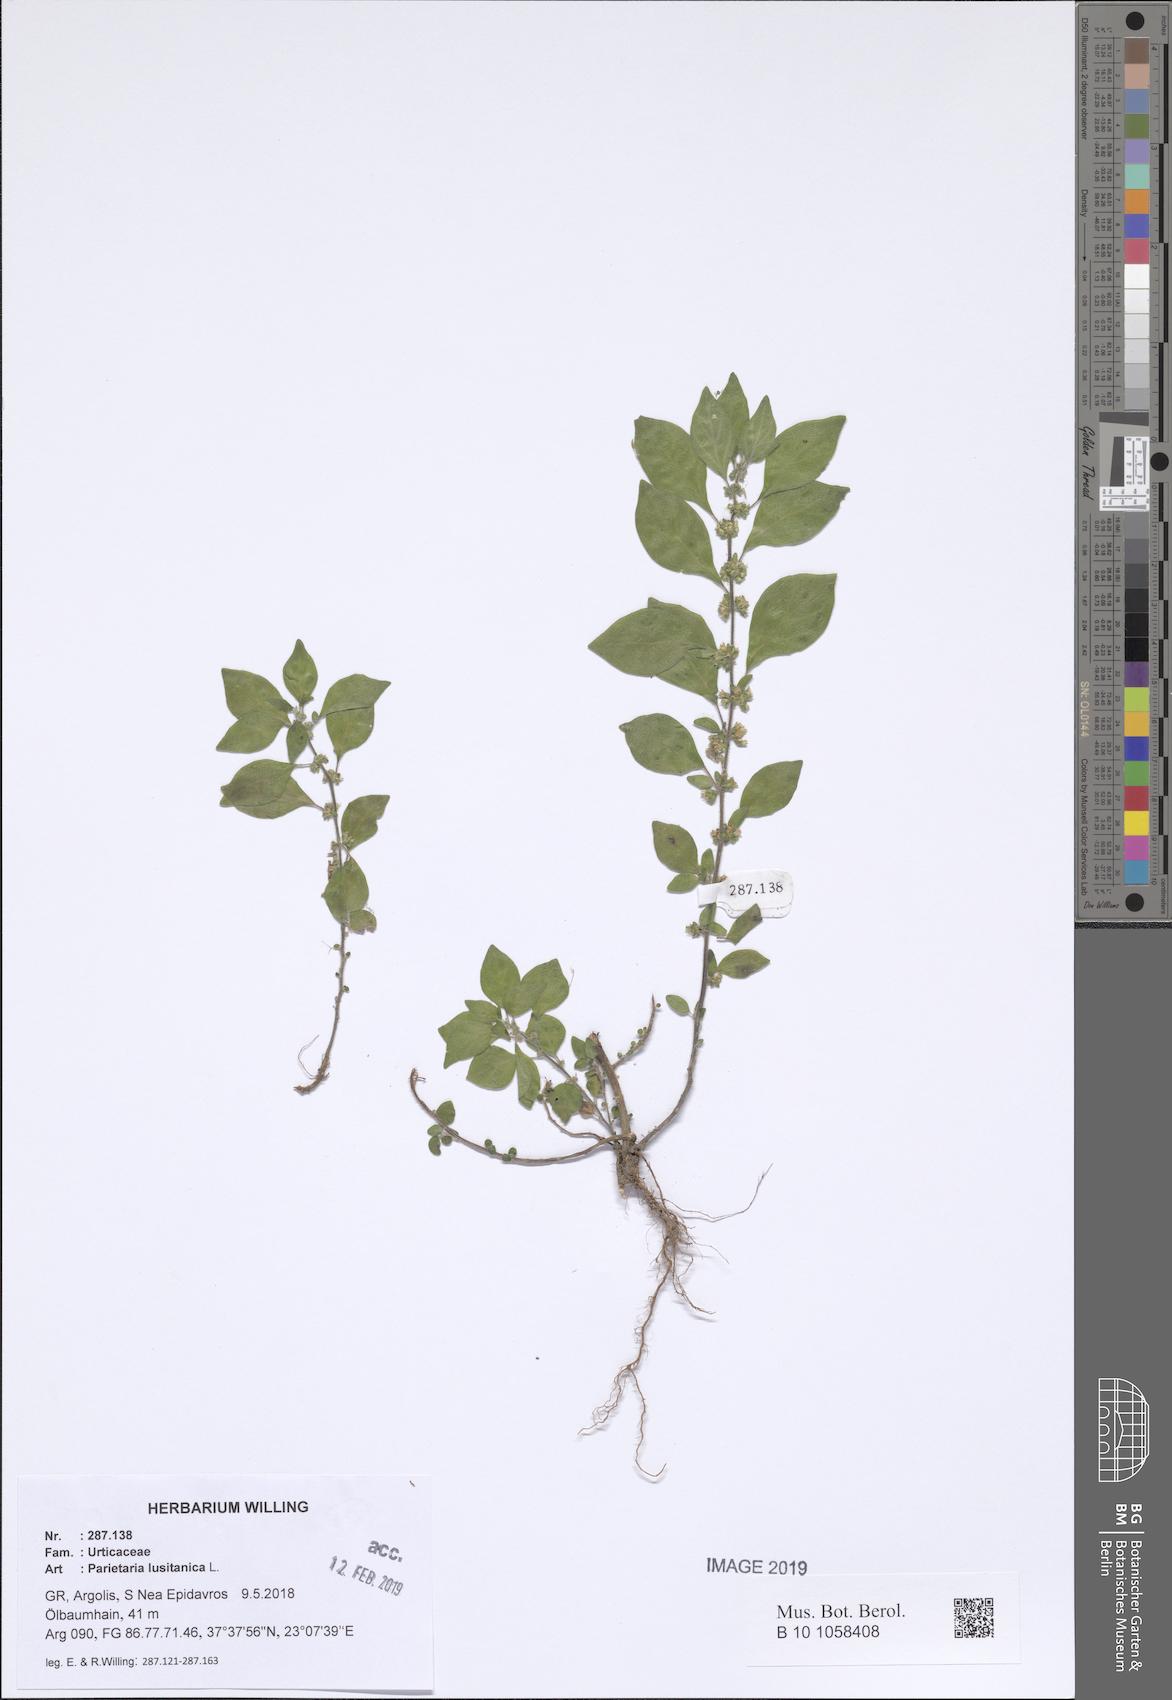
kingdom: Plantae
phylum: Tracheophyta
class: Magnoliopsida
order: Rosales
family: Urticaceae
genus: Parietaria
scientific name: Parietaria lusitanica
